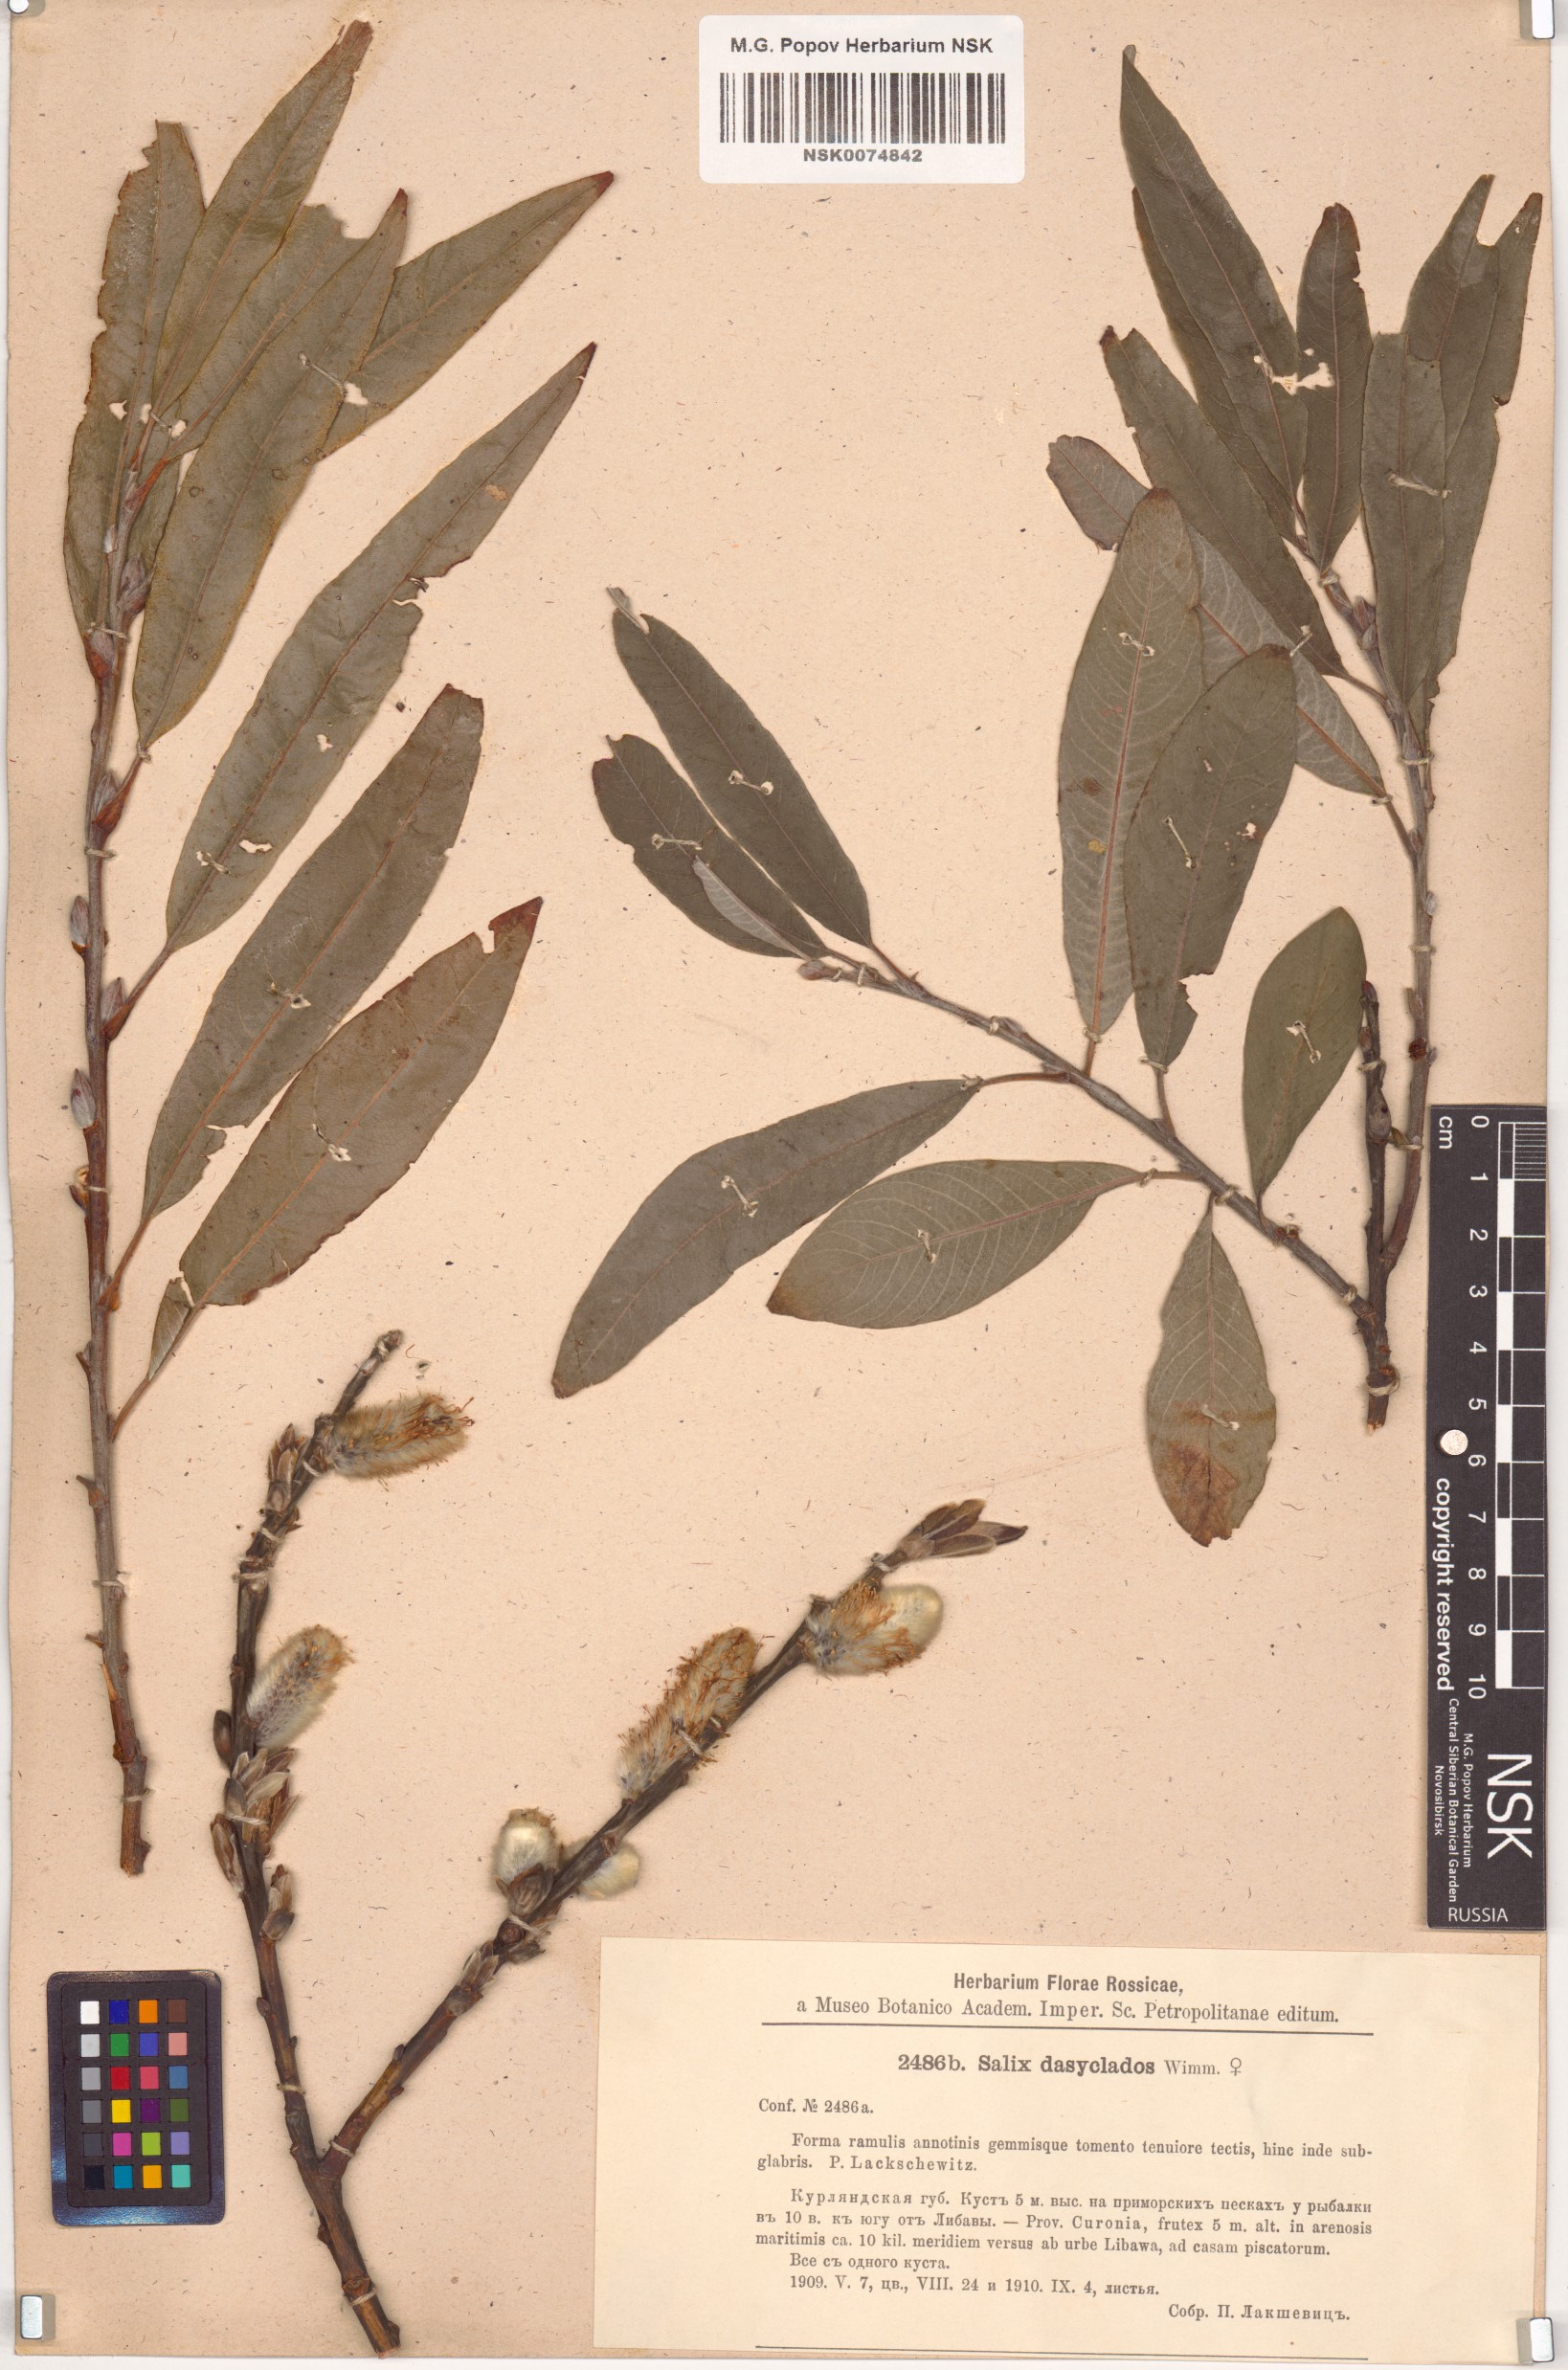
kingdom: Plantae
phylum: Tracheophyta
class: Magnoliopsida
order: Malpighiales
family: Salicaceae
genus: Salix
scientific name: Salix gmelinii
